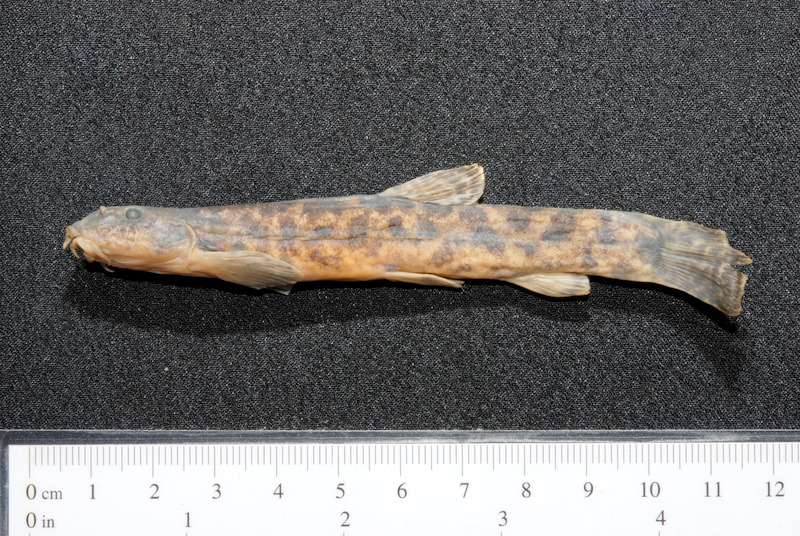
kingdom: Animalia
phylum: Chordata
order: Cypriniformes
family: Nemacheilidae
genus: Barbatula
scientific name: Barbatula barbatula
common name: Stone loach
